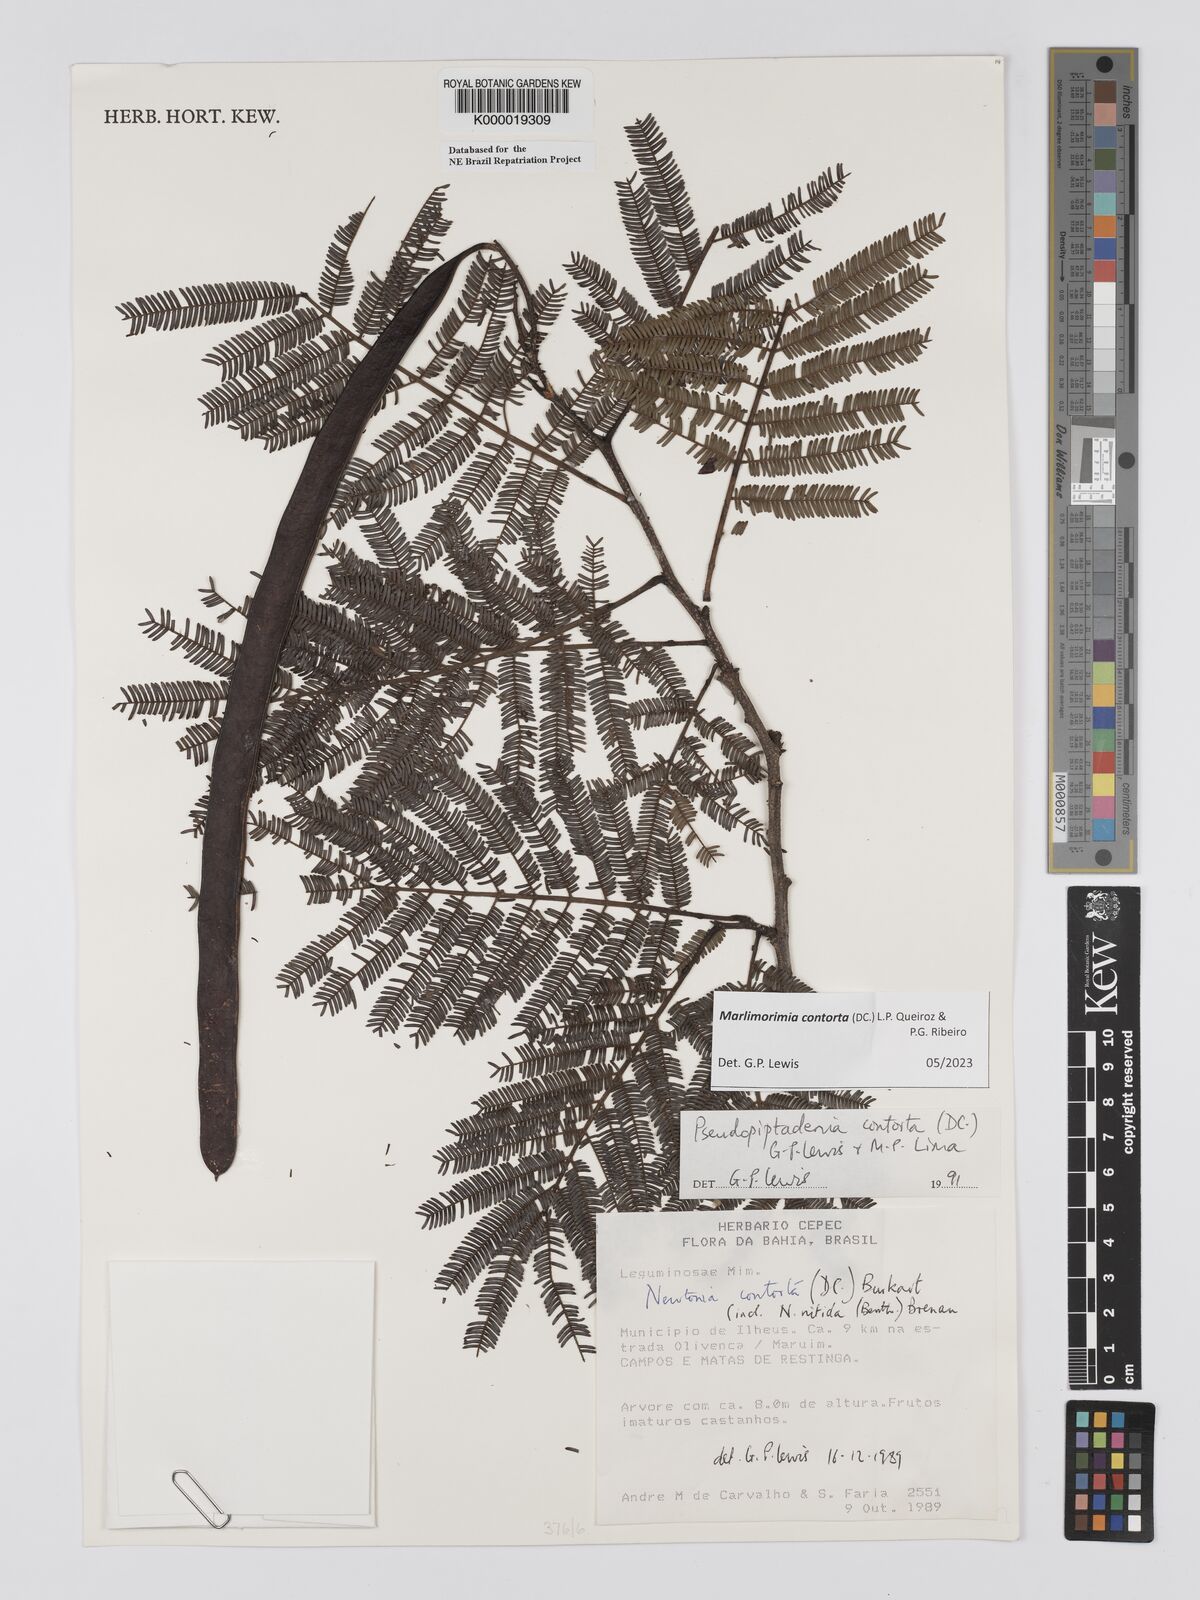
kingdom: Plantae
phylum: Tracheophyta
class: Magnoliopsida
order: Fabales
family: Fabaceae
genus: Pseudopiptadenia
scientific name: Pseudopiptadenia contorta
